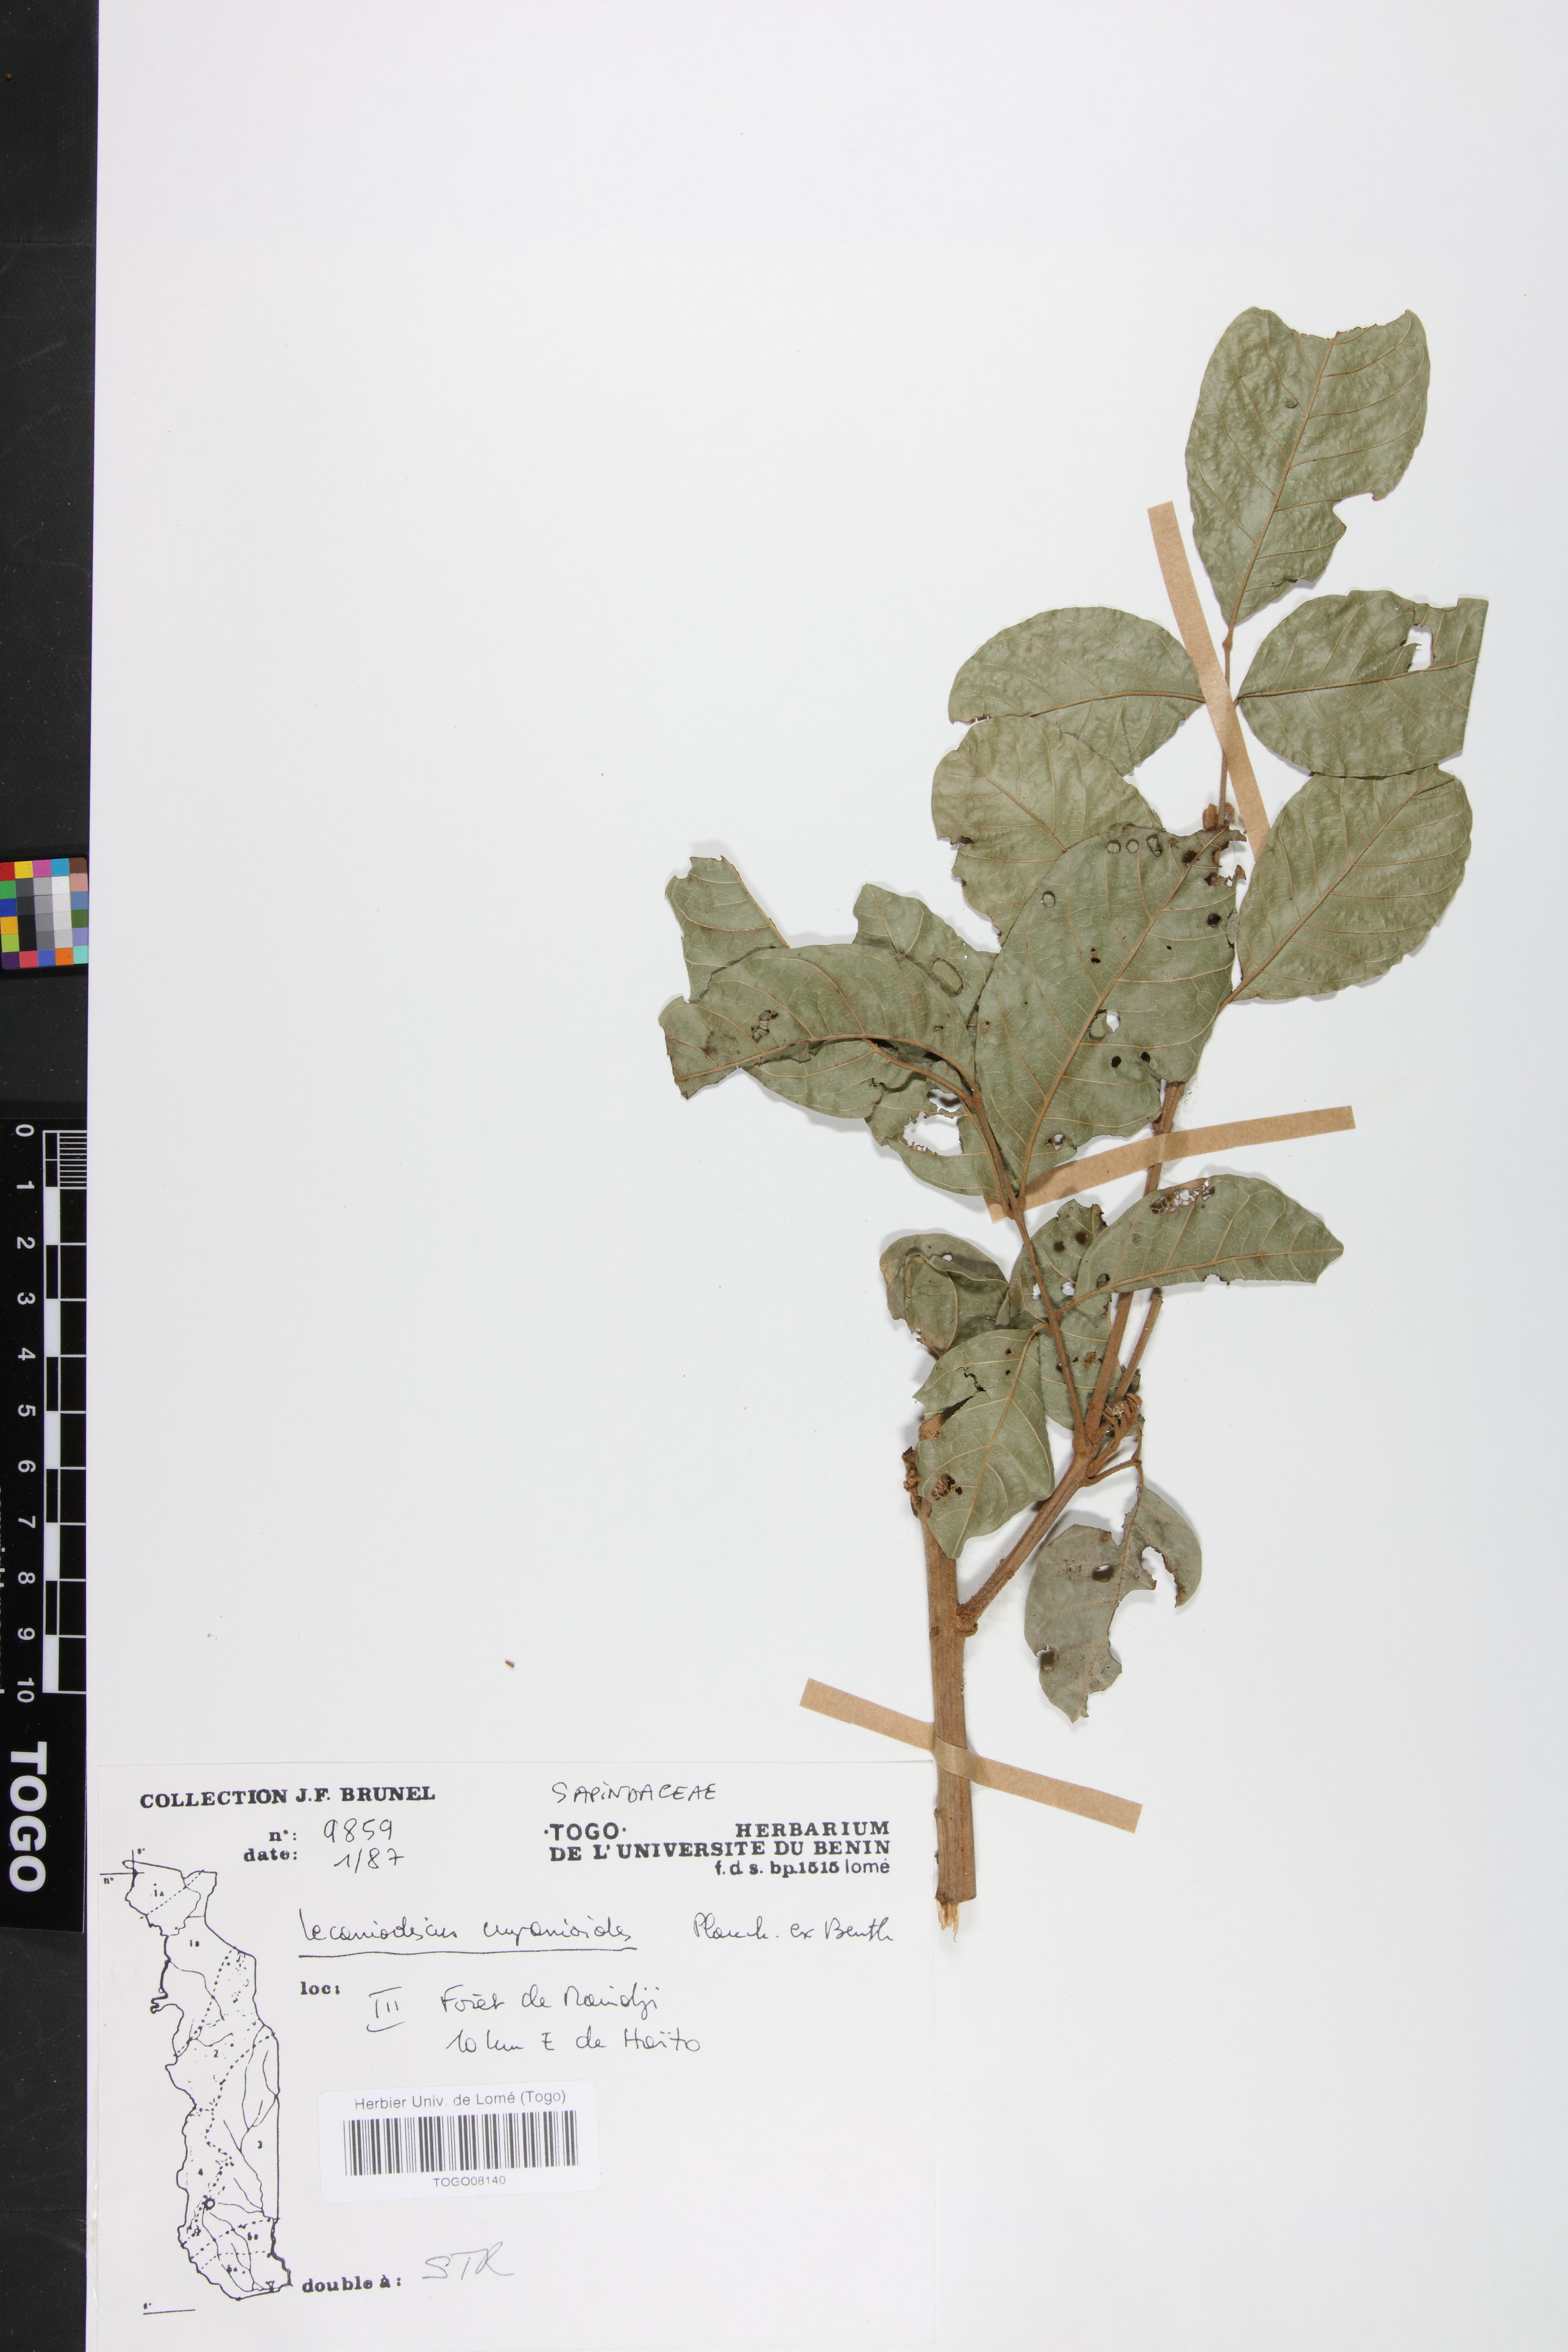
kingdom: Plantae
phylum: Tracheophyta
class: Magnoliopsida
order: Sapindales
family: Sapindaceae
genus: Lecaniodiscus
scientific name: Lecaniodiscus cupanioides
